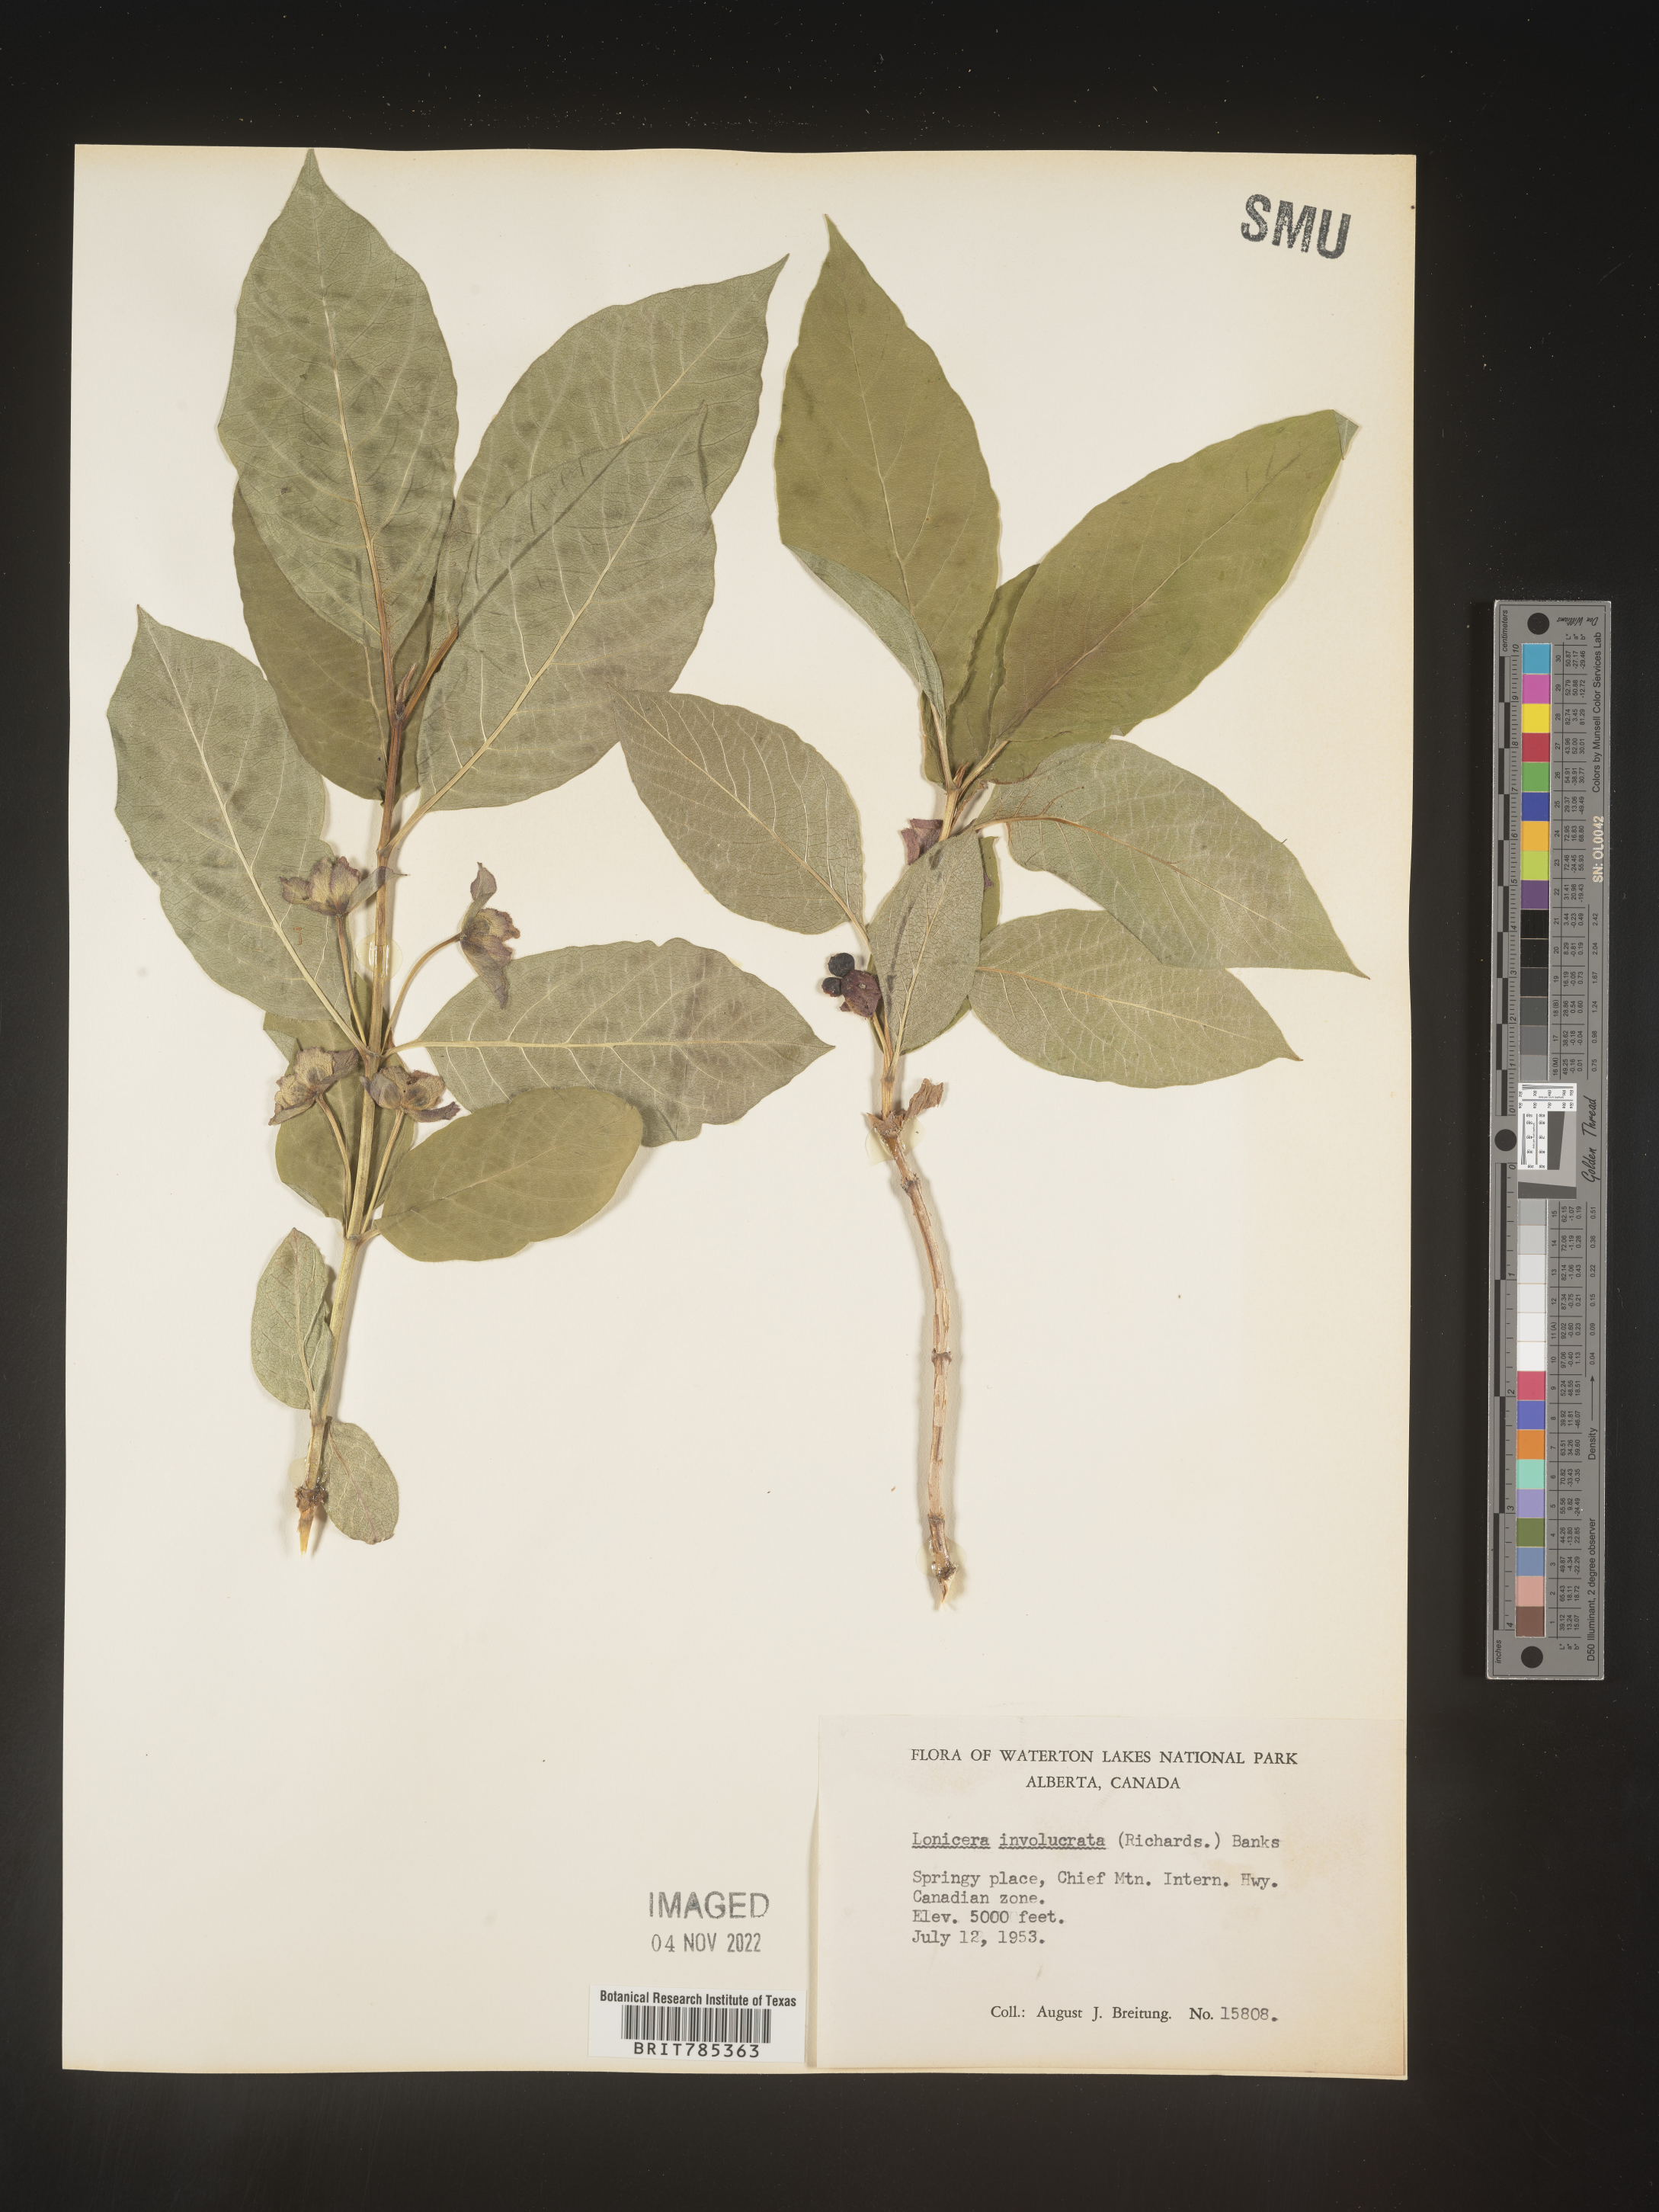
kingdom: Plantae
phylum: Tracheophyta
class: Magnoliopsida
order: Dipsacales
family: Caprifoliaceae
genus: Lonicera
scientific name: Lonicera involucrata
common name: Californian honeysuckle
